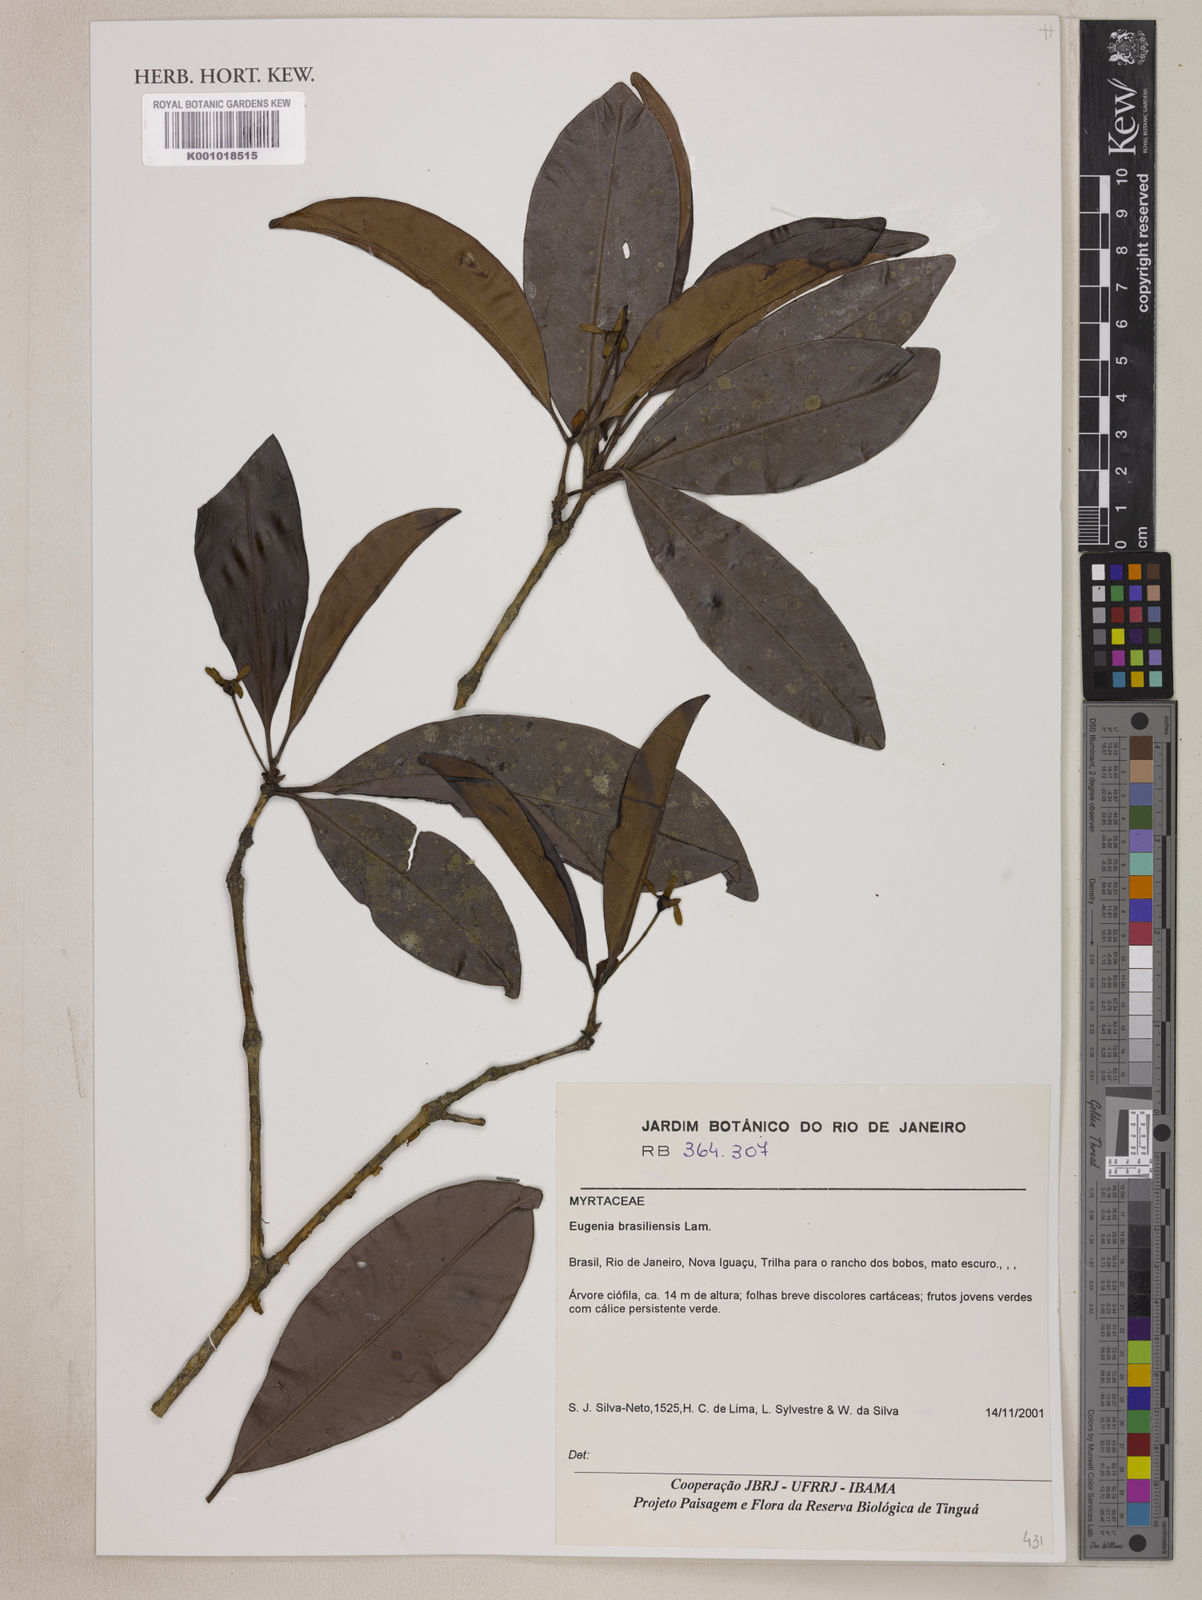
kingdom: Plantae
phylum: Tracheophyta
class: Magnoliopsida
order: Myrtales
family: Myrtaceae
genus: Eugenia
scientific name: Eugenia brasiliensis
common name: Grumichama
